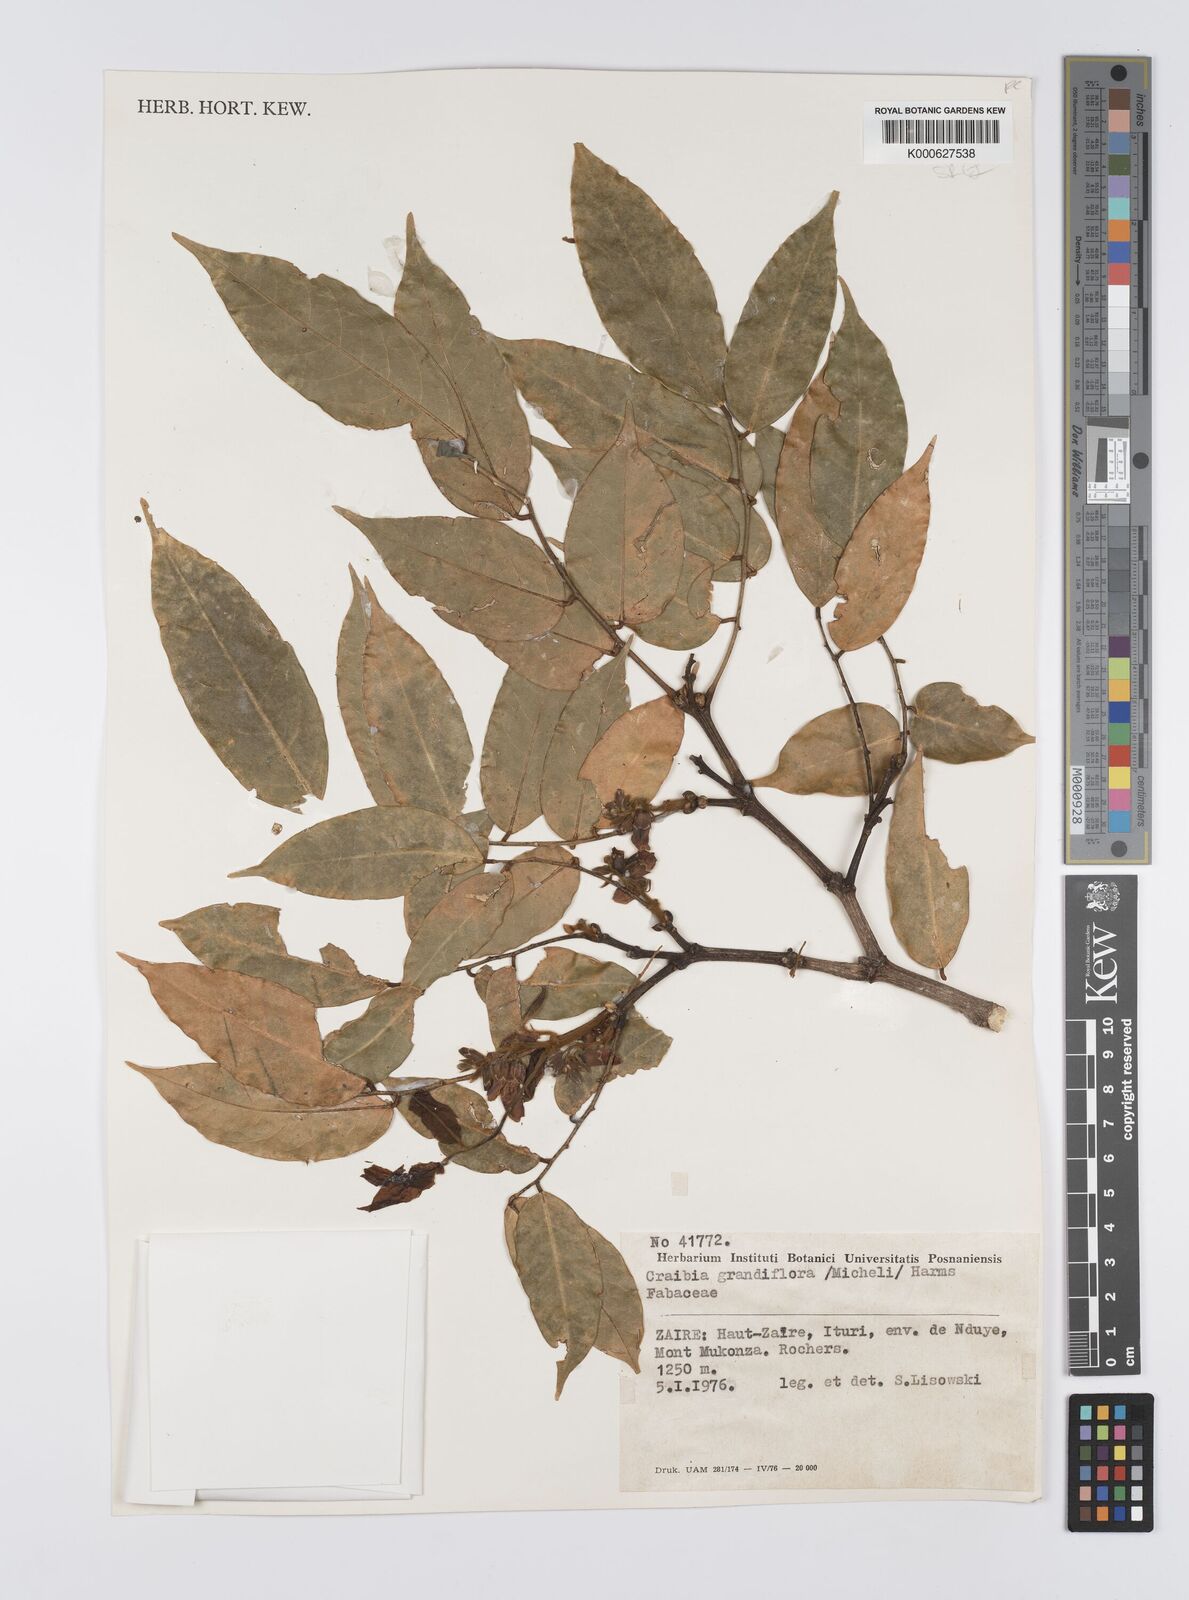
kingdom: Plantae
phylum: Tracheophyta
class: Magnoliopsida
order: Fabales
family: Fabaceae
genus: Craibia
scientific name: Craibia grandiflora
